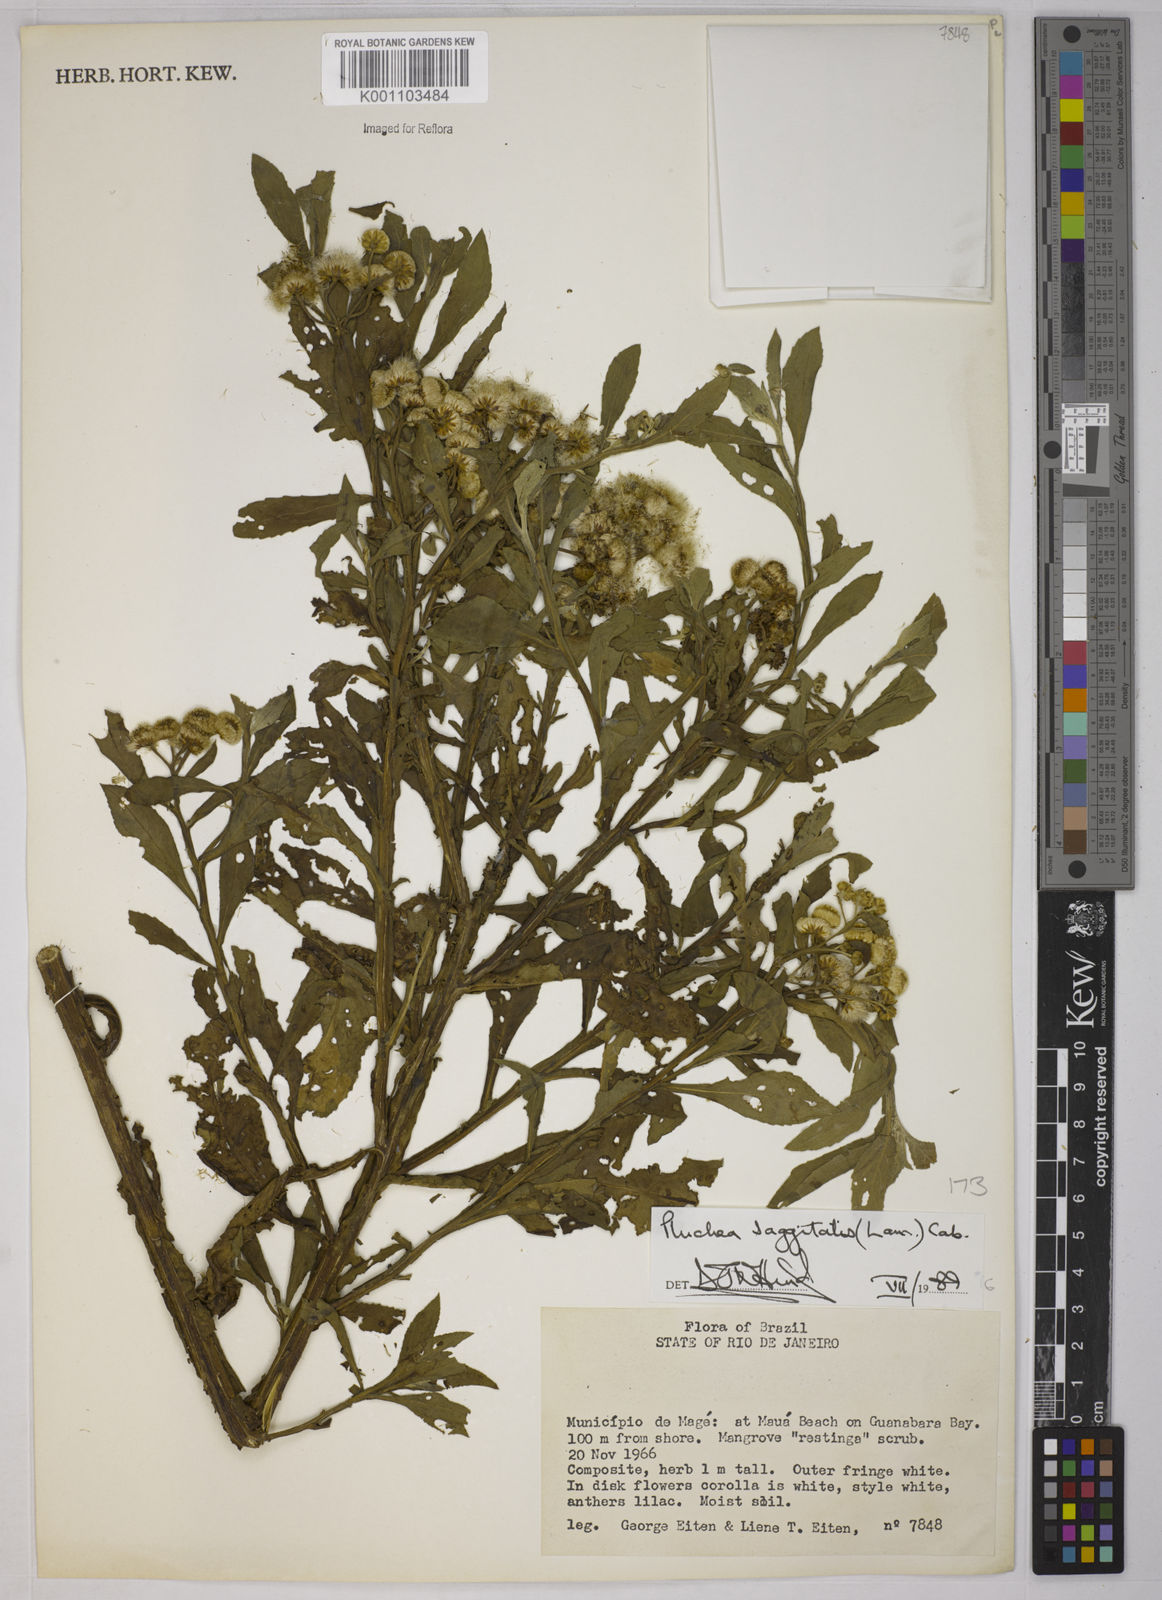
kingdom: Plantae
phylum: Tracheophyta
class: Magnoliopsida
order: Asterales
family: Asteraceae
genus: Pluchea
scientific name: Pluchea sagittalis
